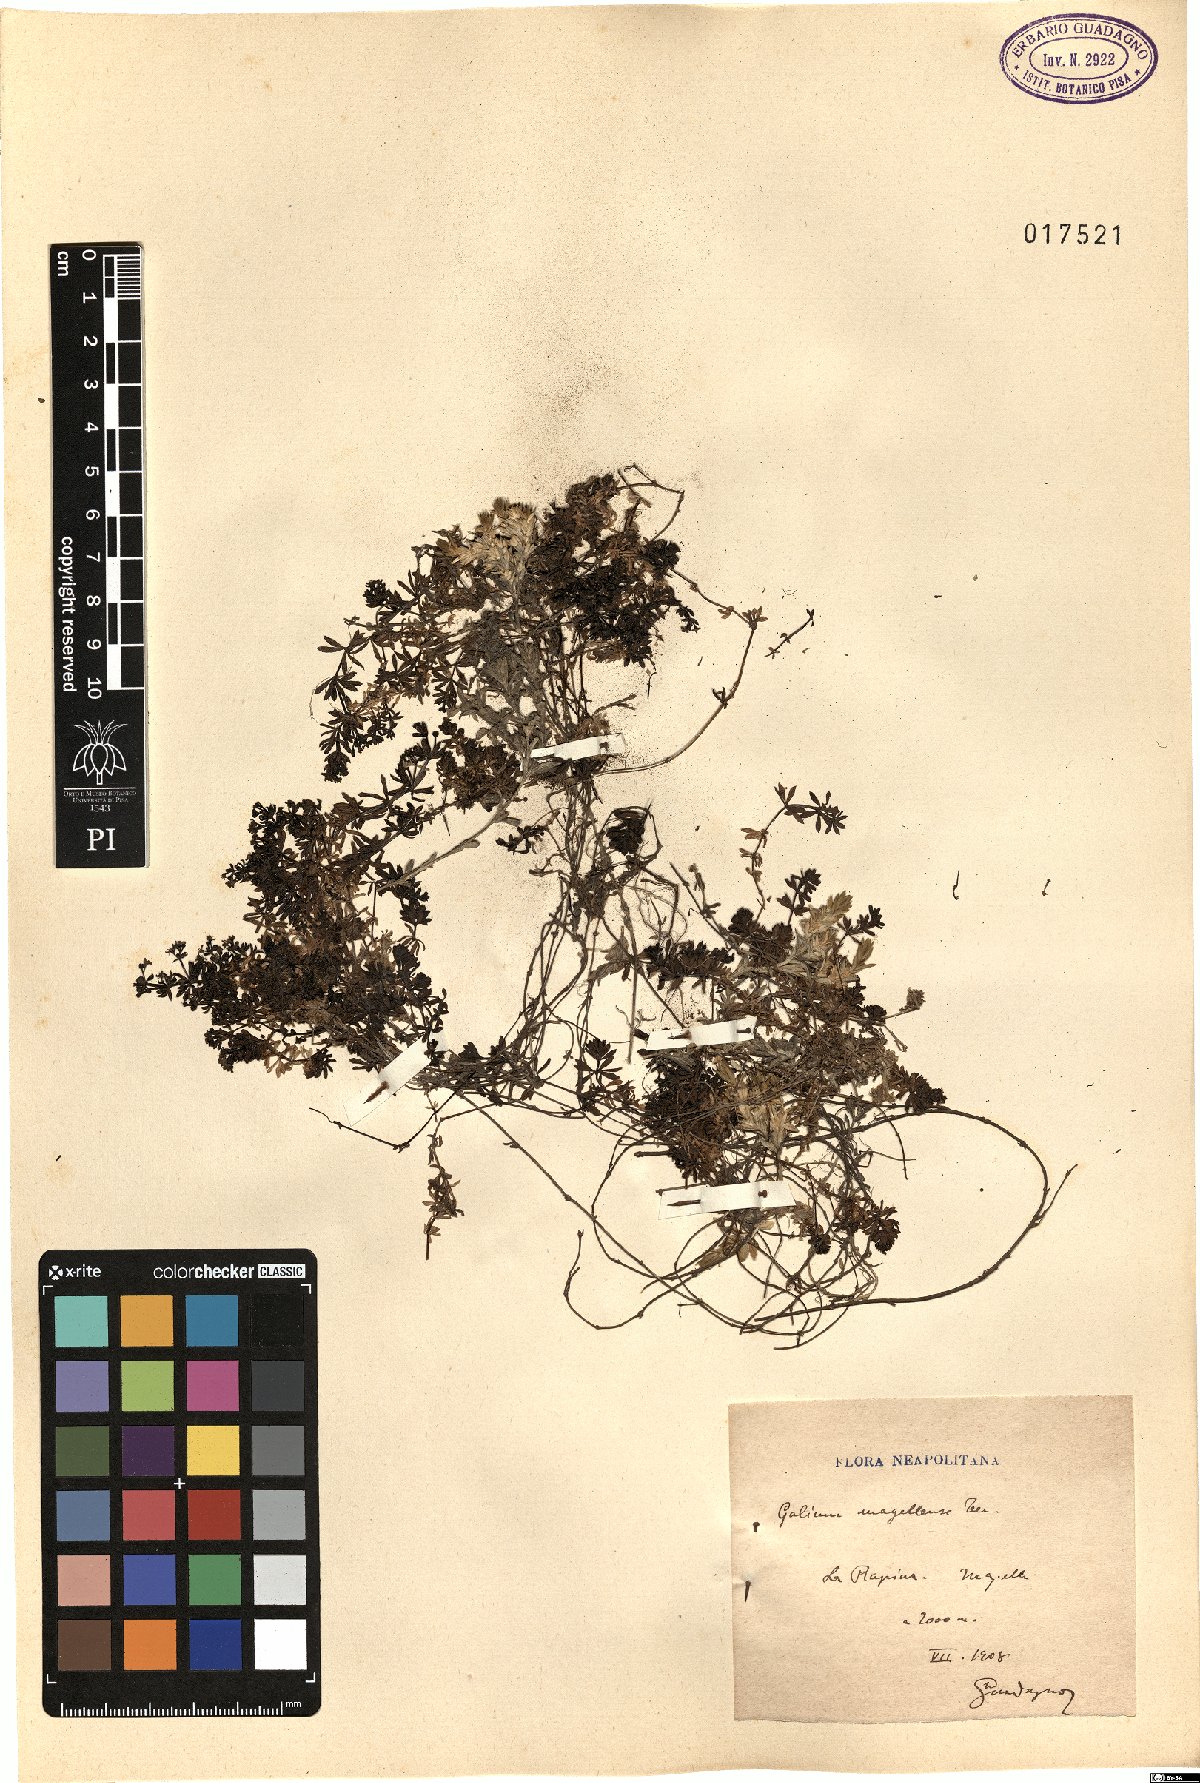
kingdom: Plantae
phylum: Tracheophyta
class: Magnoliopsida
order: Gentianales
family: Rubiaceae
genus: Galium
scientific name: Galium magellense
